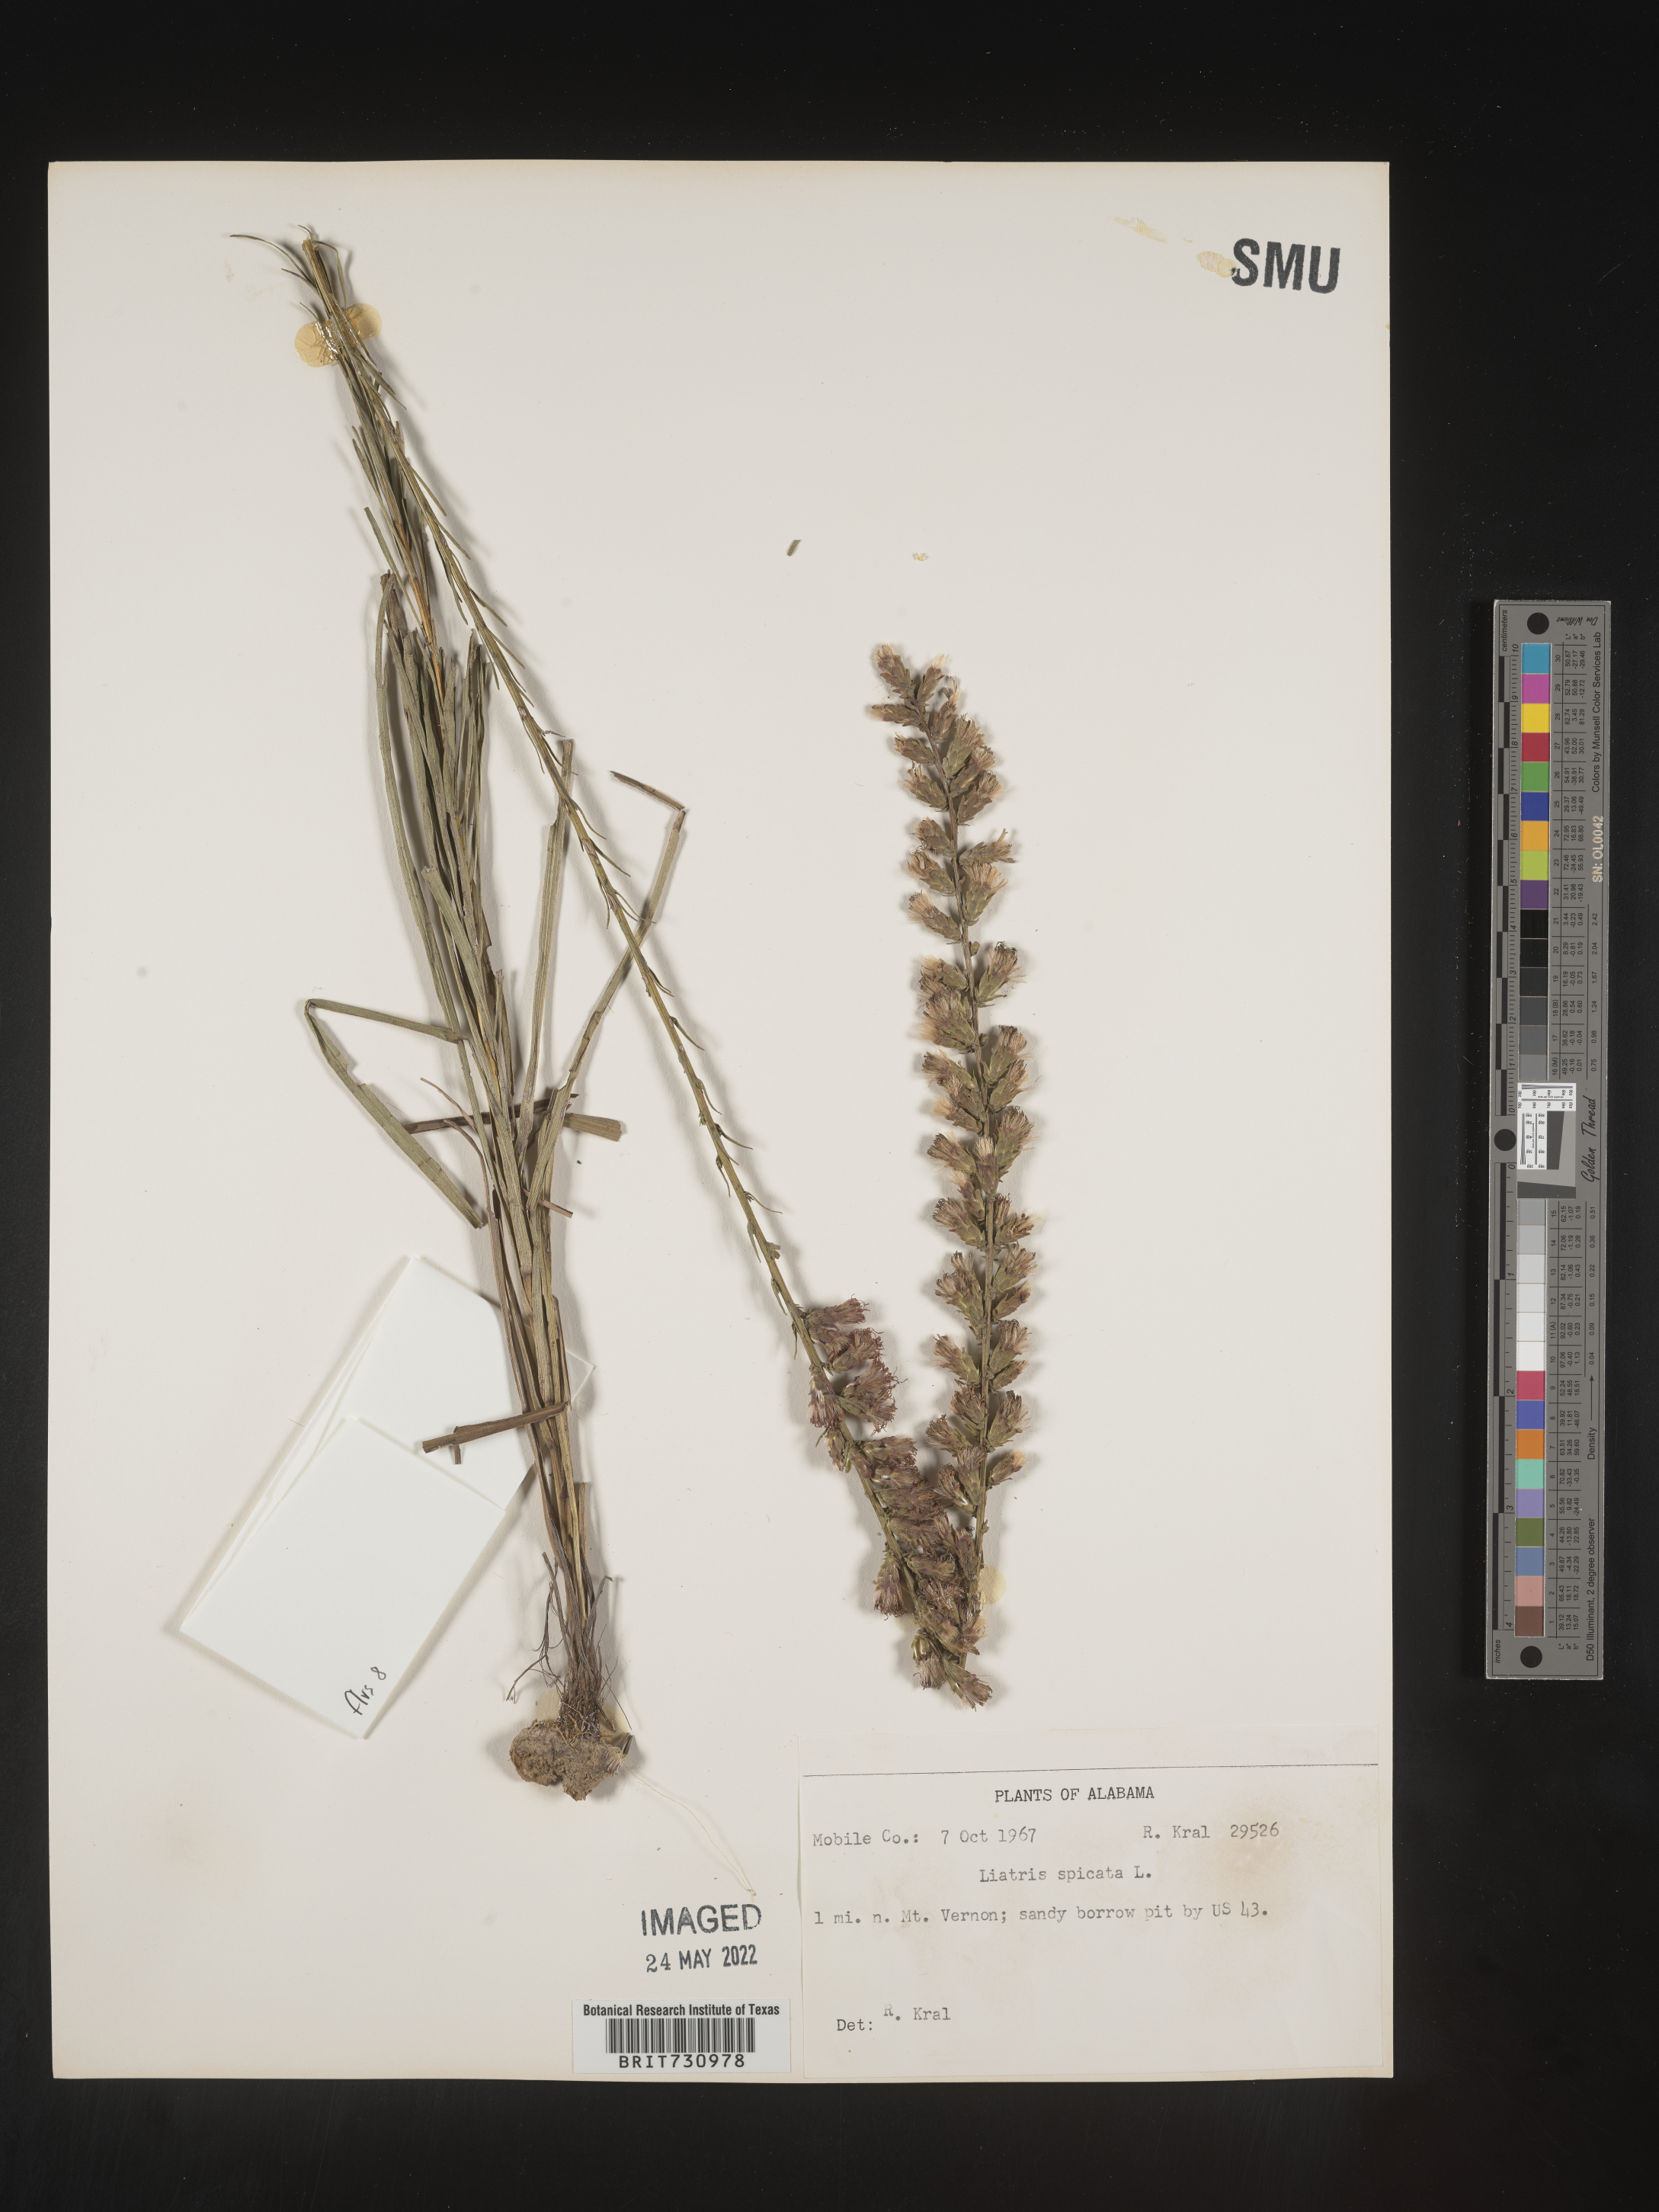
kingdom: Plantae
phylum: Tracheophyta
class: Magnoliopsida
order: Asterales
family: Asteraceae
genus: Liatris
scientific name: Liatris spicata
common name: Florist gayfeather
